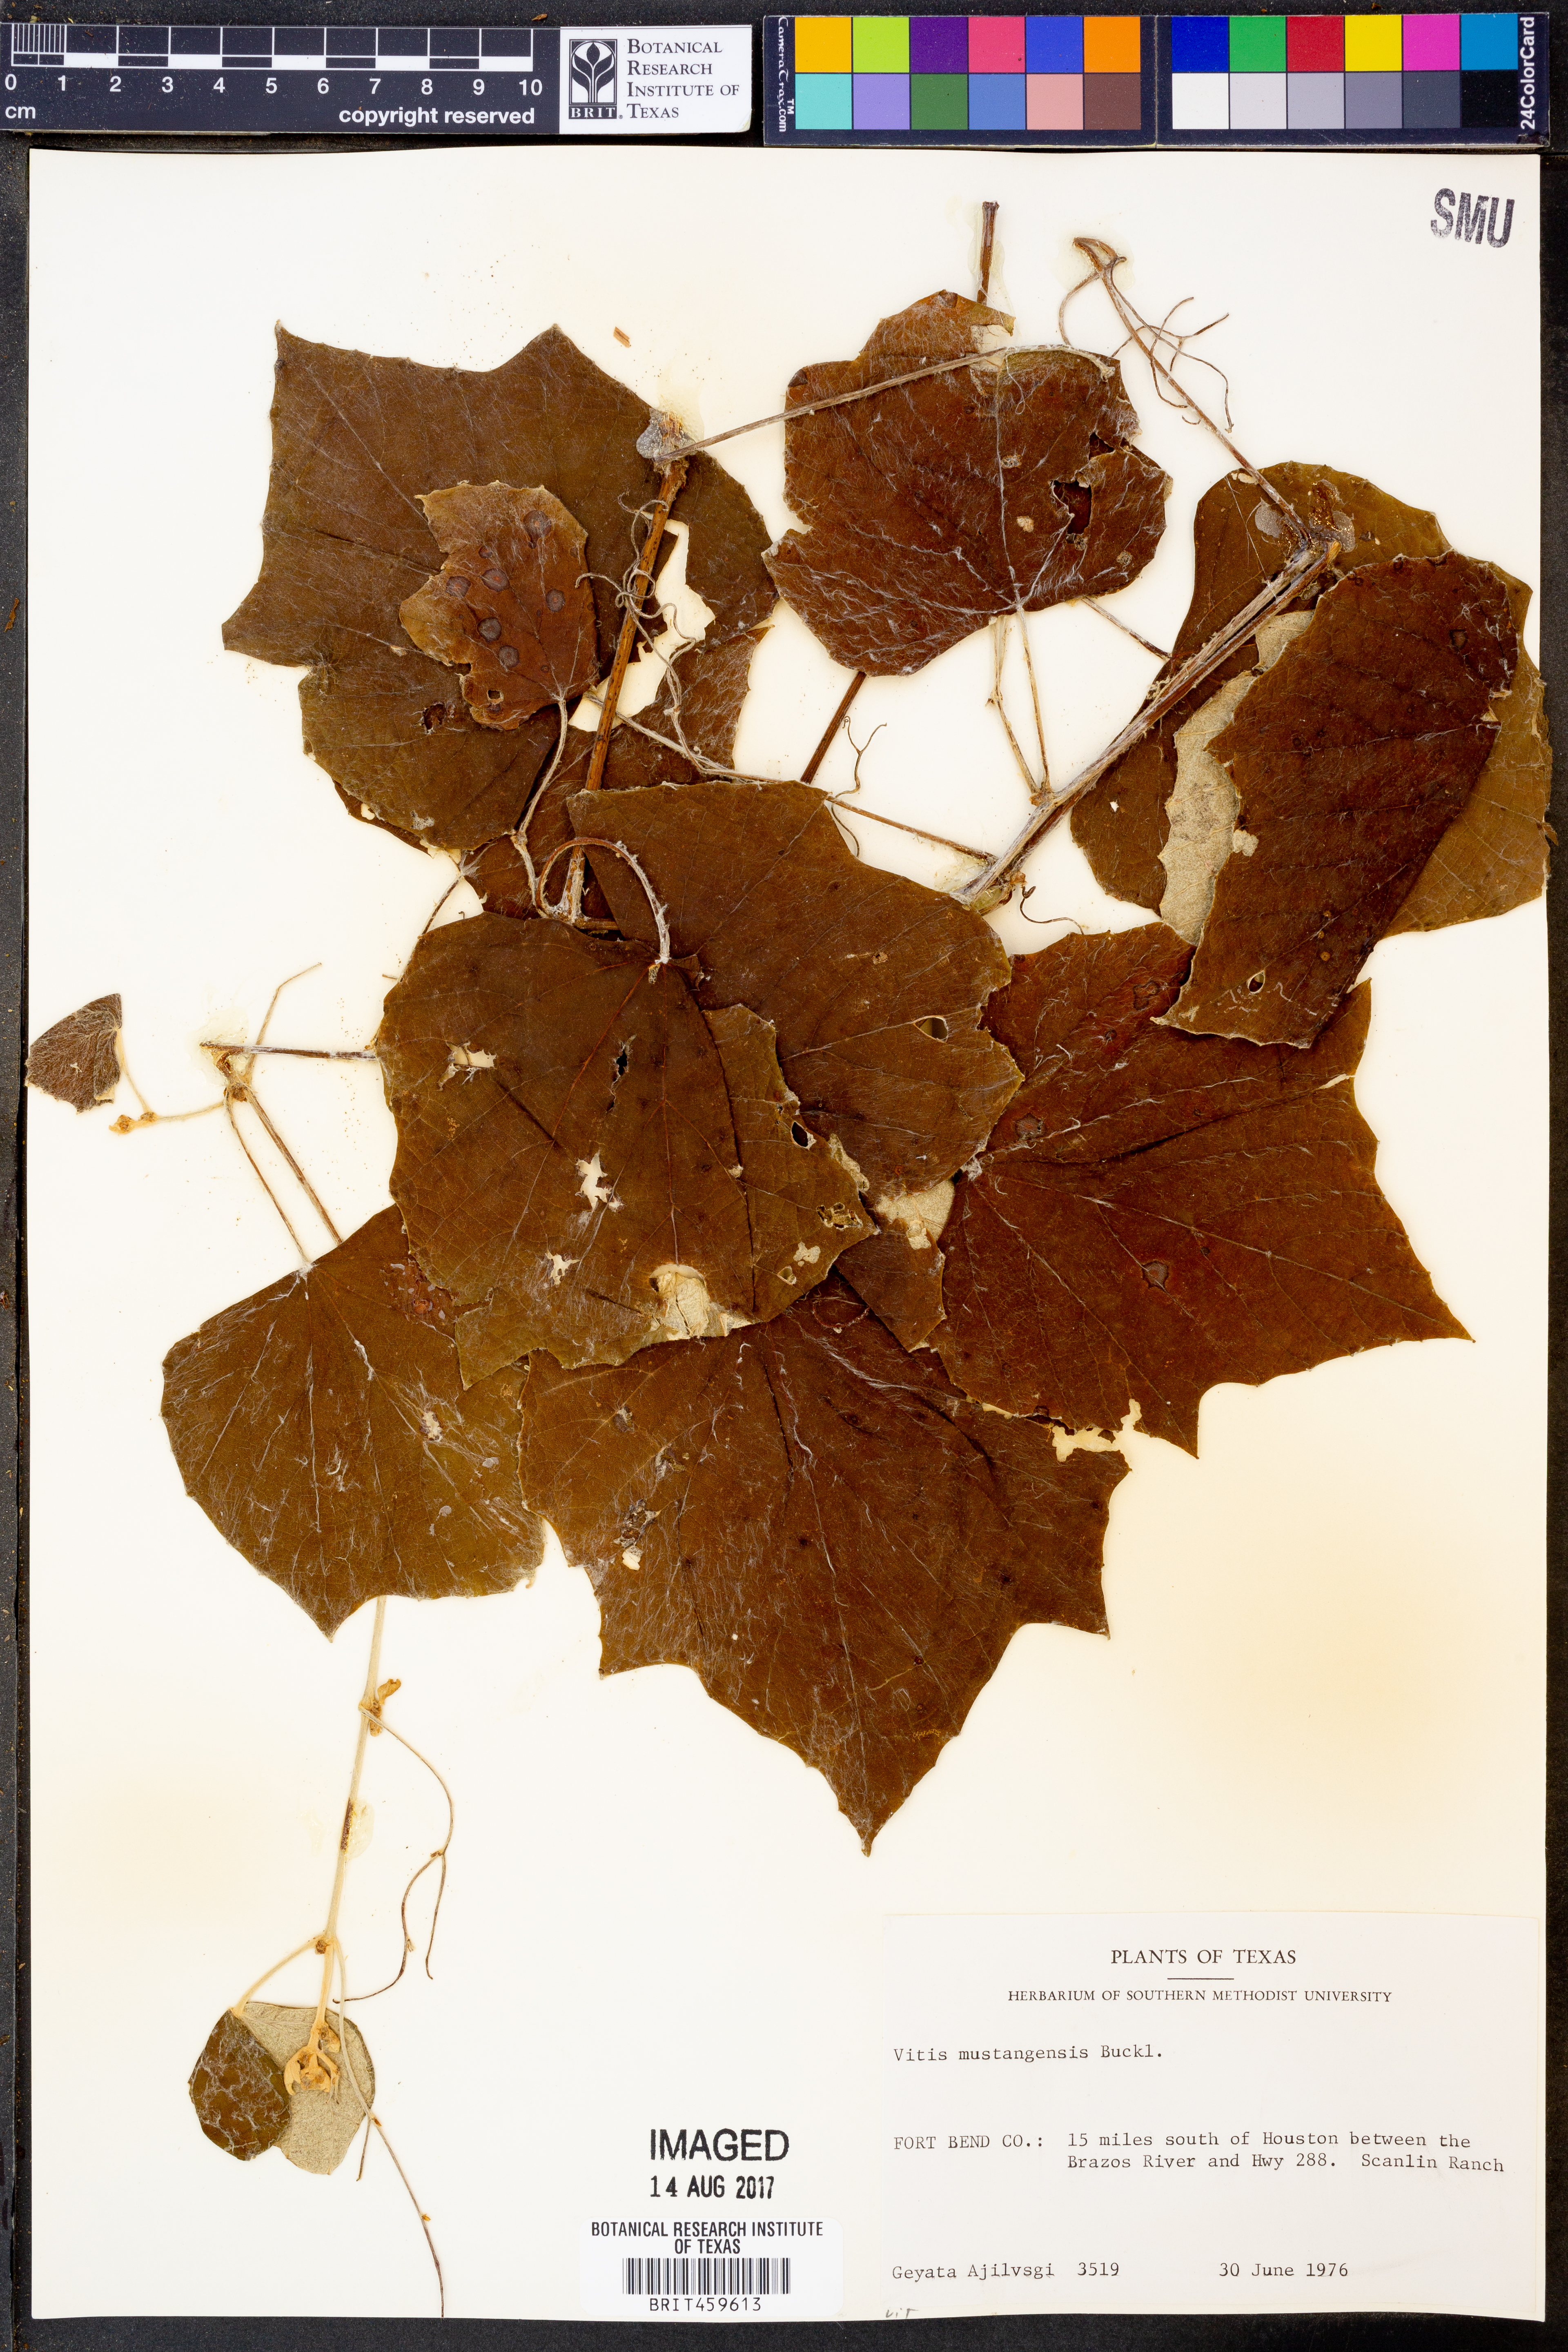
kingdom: Plantae
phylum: Tracheophyta
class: Magnoliopsida
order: Vitales
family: Vitaceae
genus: Vitis
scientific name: Vitis mustangensis
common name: Mustang grape
